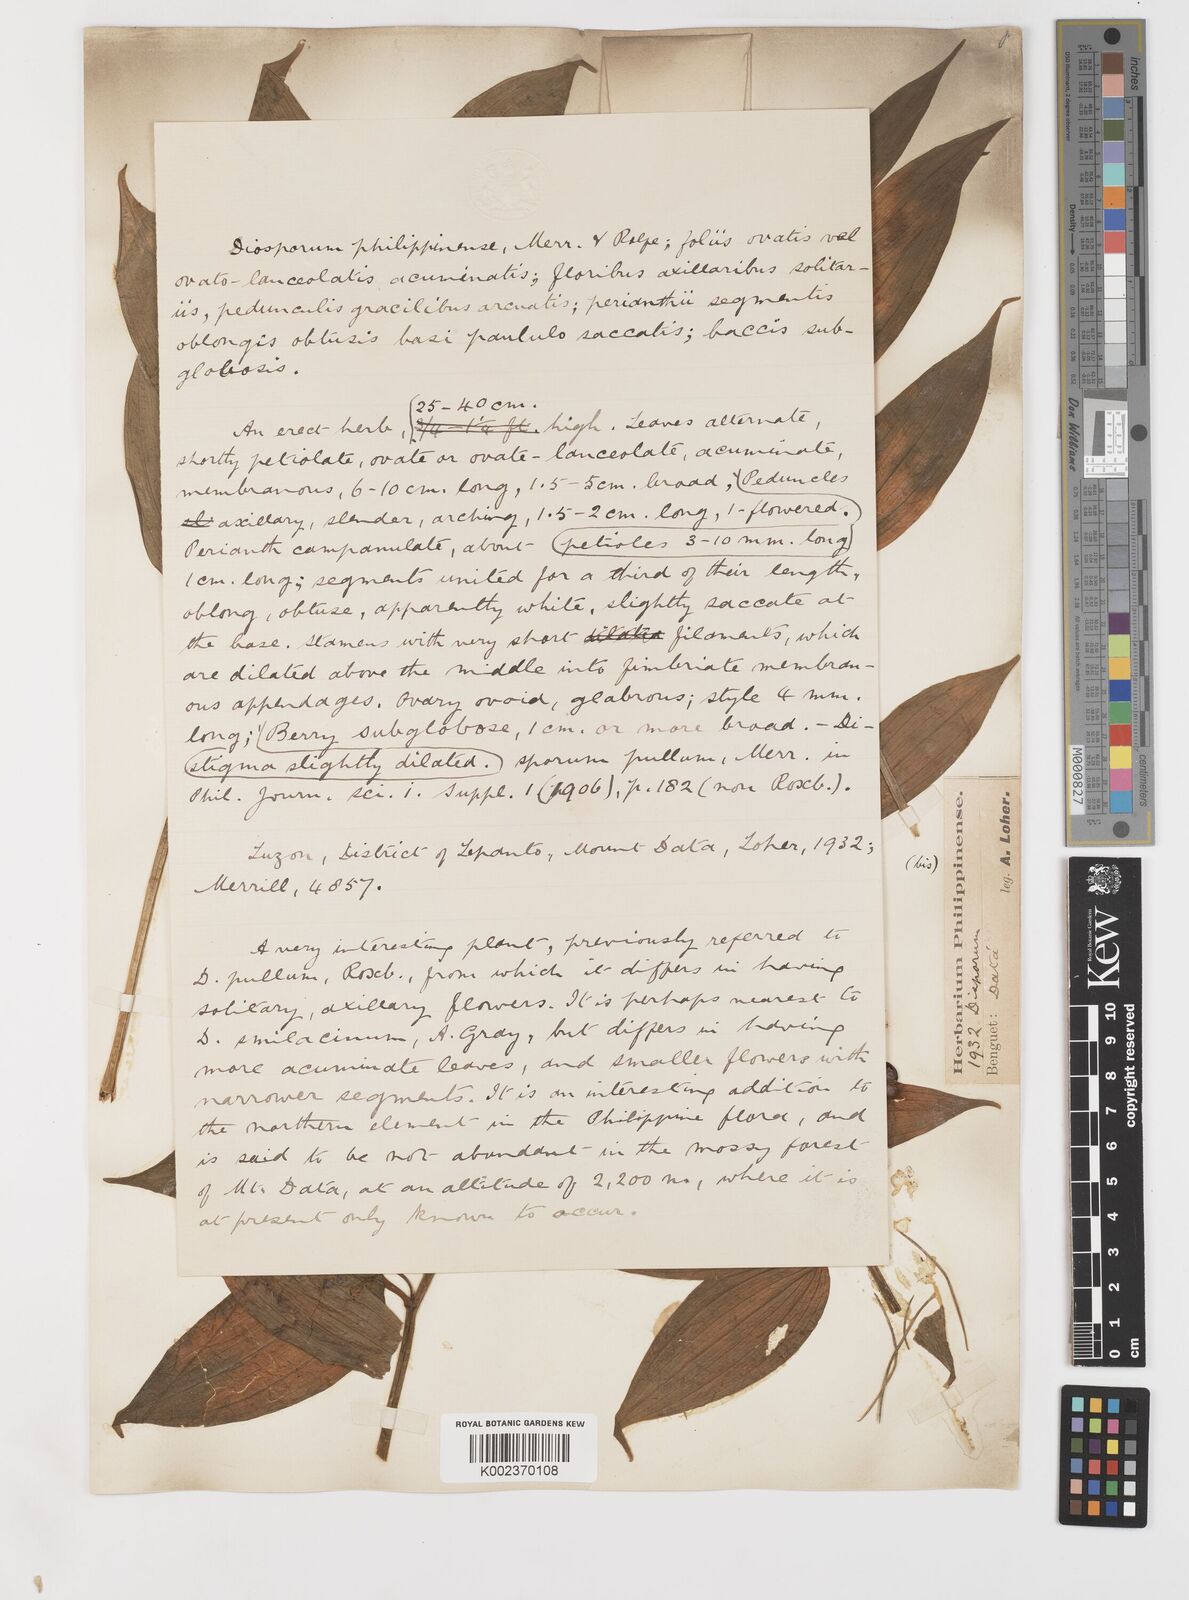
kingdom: Plantae
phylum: Tracheophyta
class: Liliopsida
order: Asparagales
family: Asparagaceae
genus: Disporopsis
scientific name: Disporopsis luzoniensis
